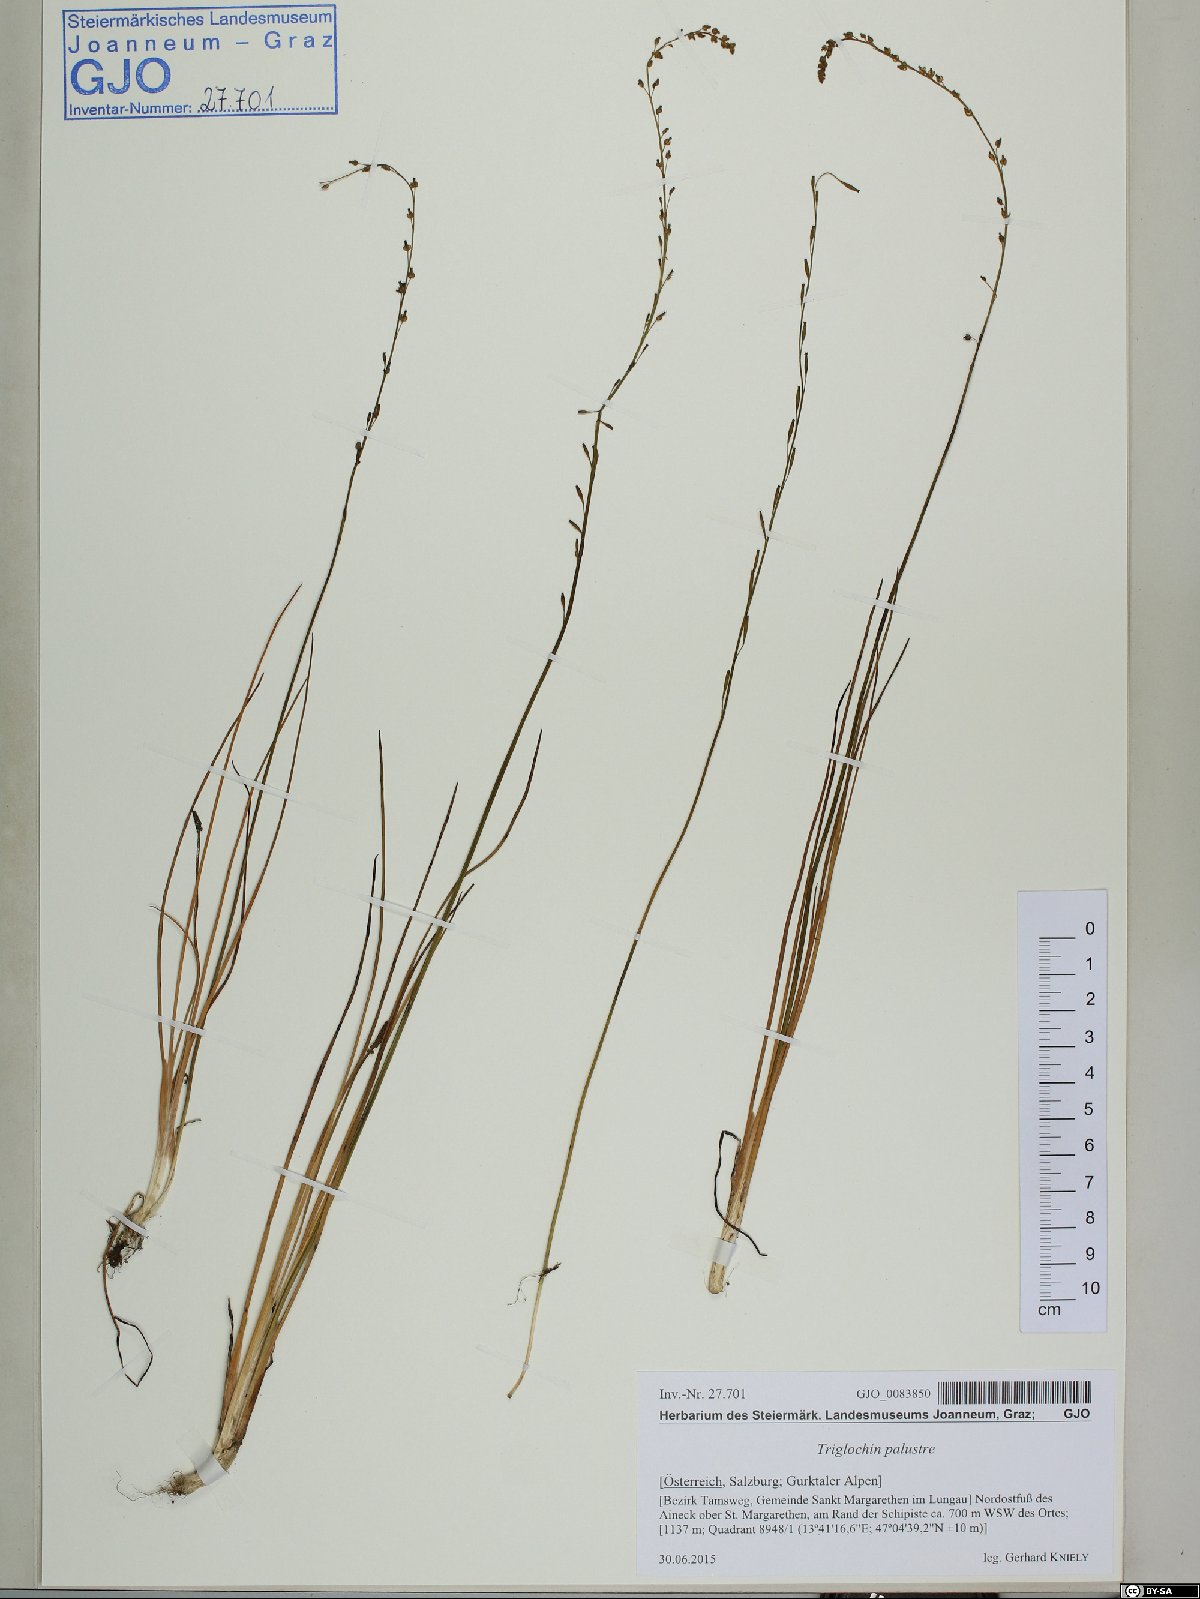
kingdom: Plantae
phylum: Tracheophyta
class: Liliopsida
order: Alismatales
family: Juncaginaceae
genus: Triglochin
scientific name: Triglochin palustris
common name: Marsh arrowgrass
